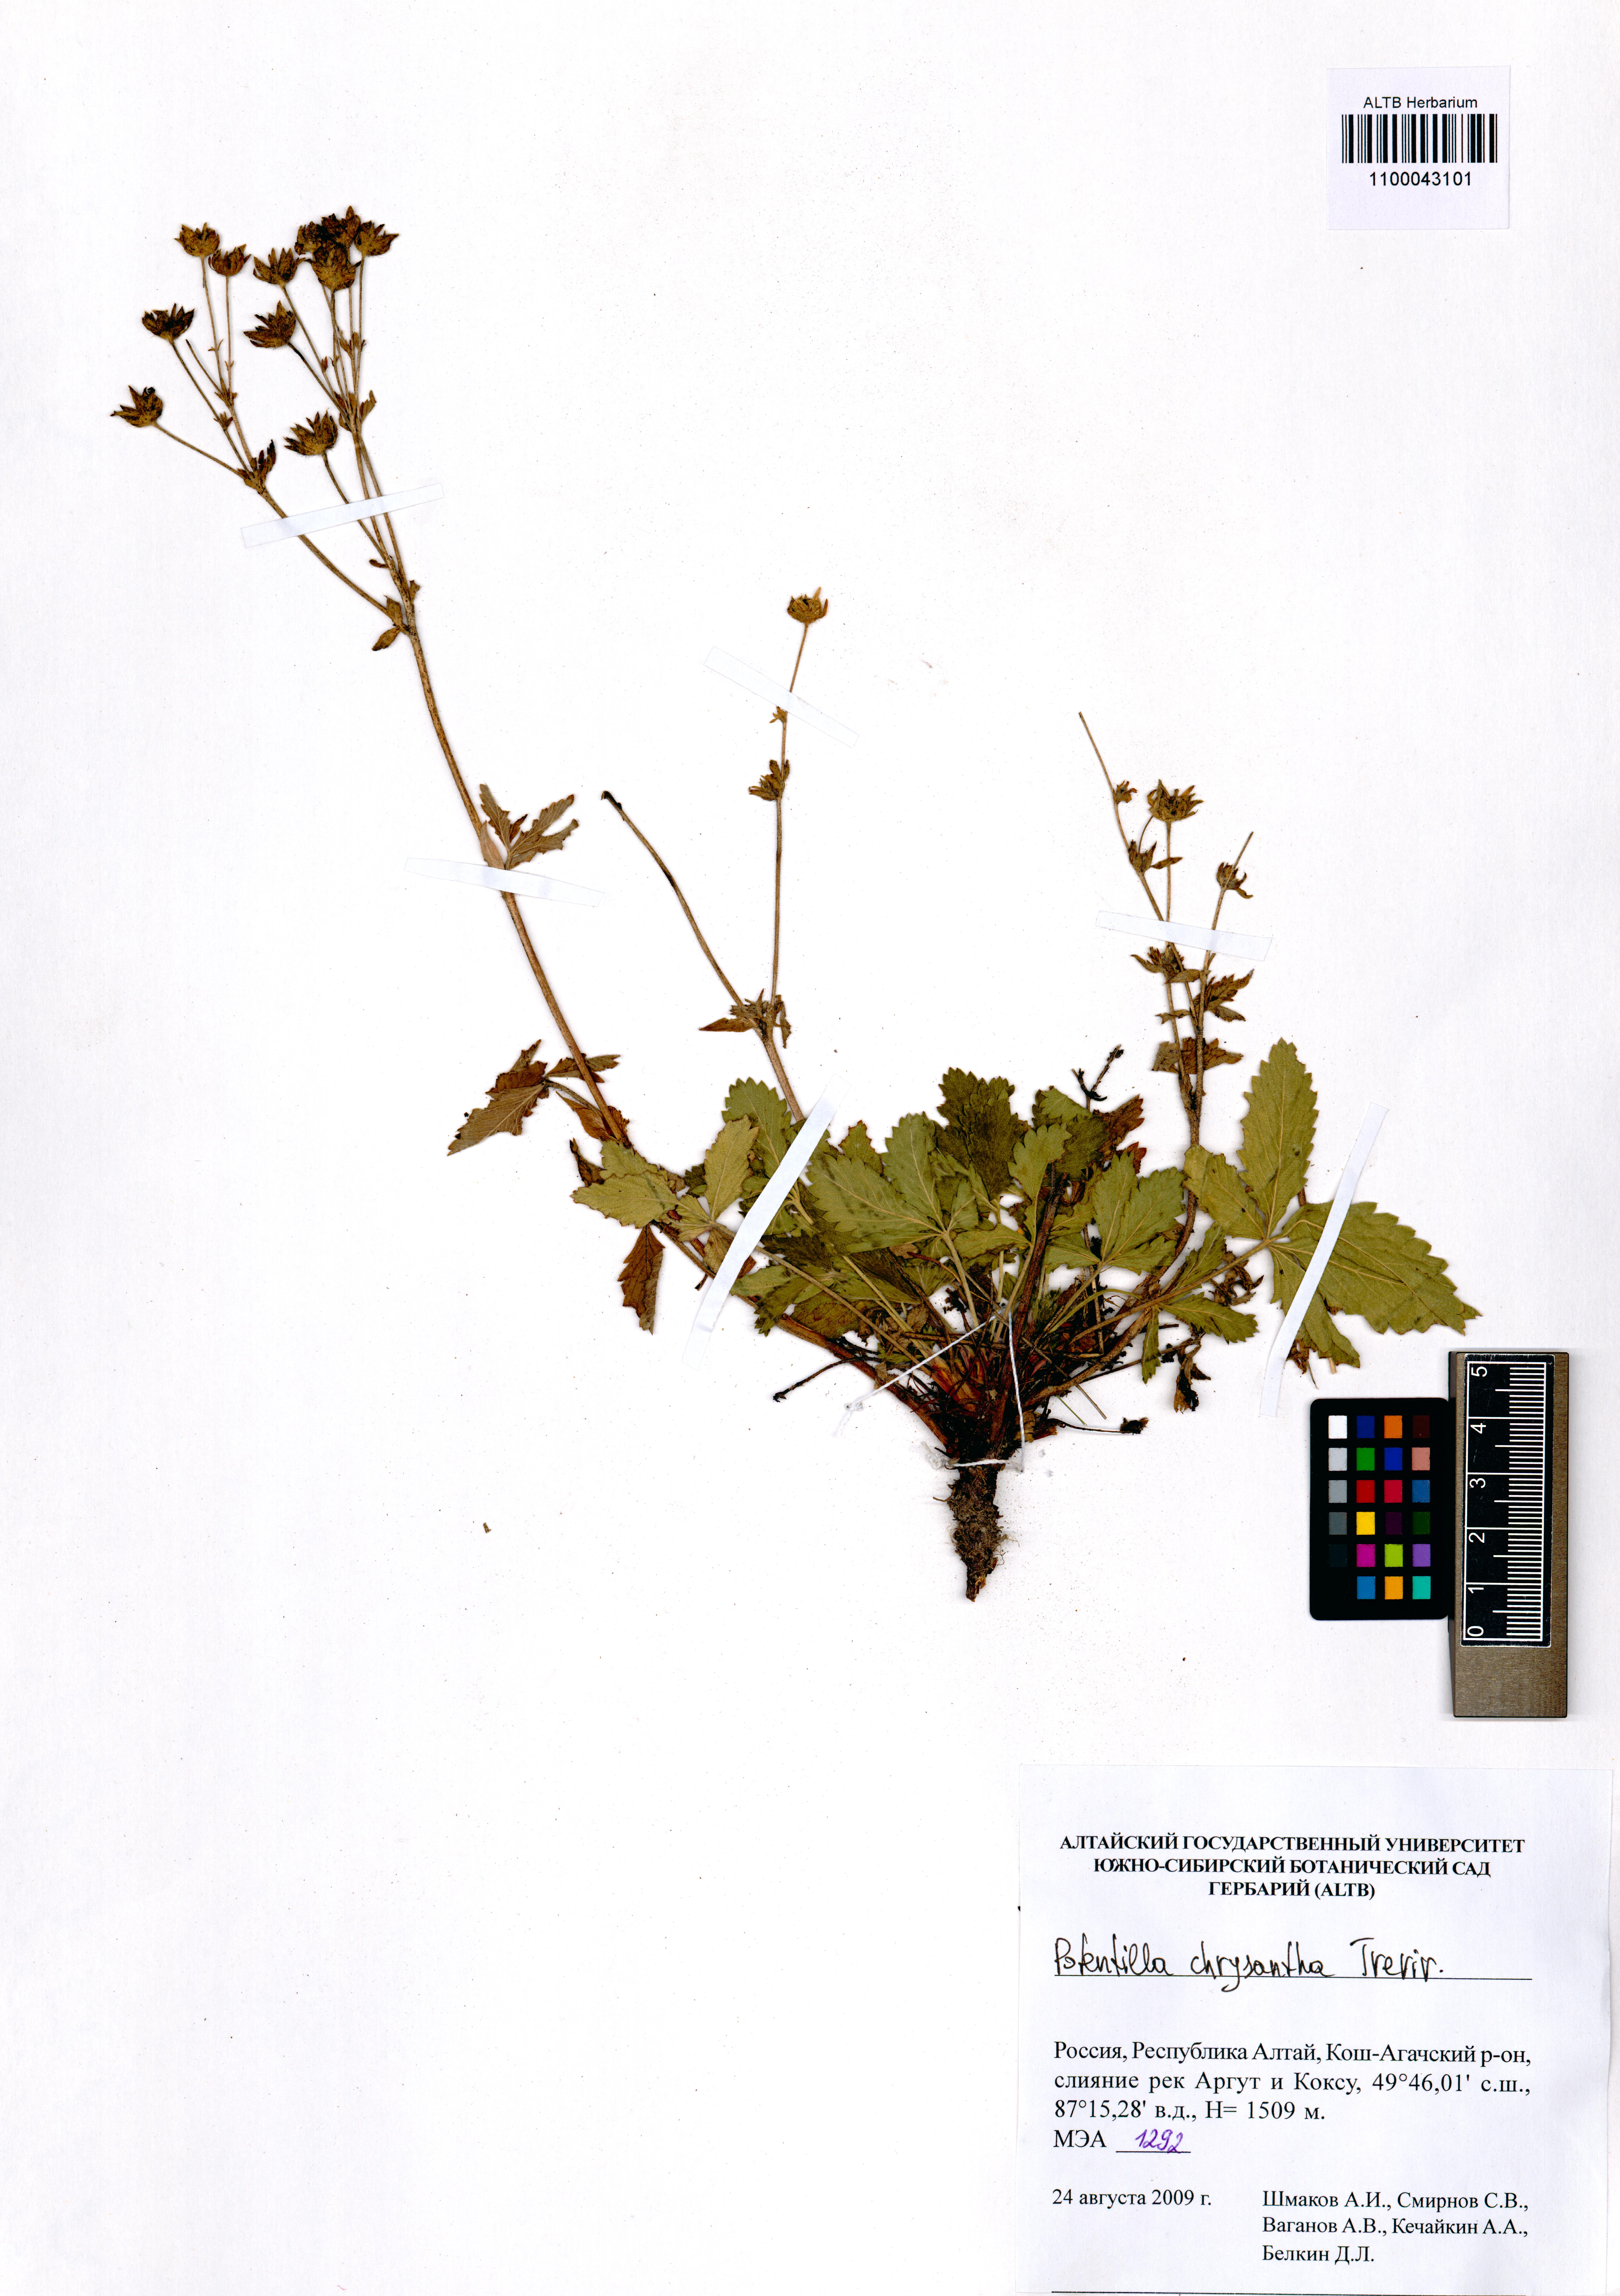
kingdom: Plantae
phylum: Tracheophyta
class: Magnoliopsida
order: Rosales
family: Rosaceae
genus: Potentilla
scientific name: Potentilla chrysantha
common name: Thuringian cinquefoil
